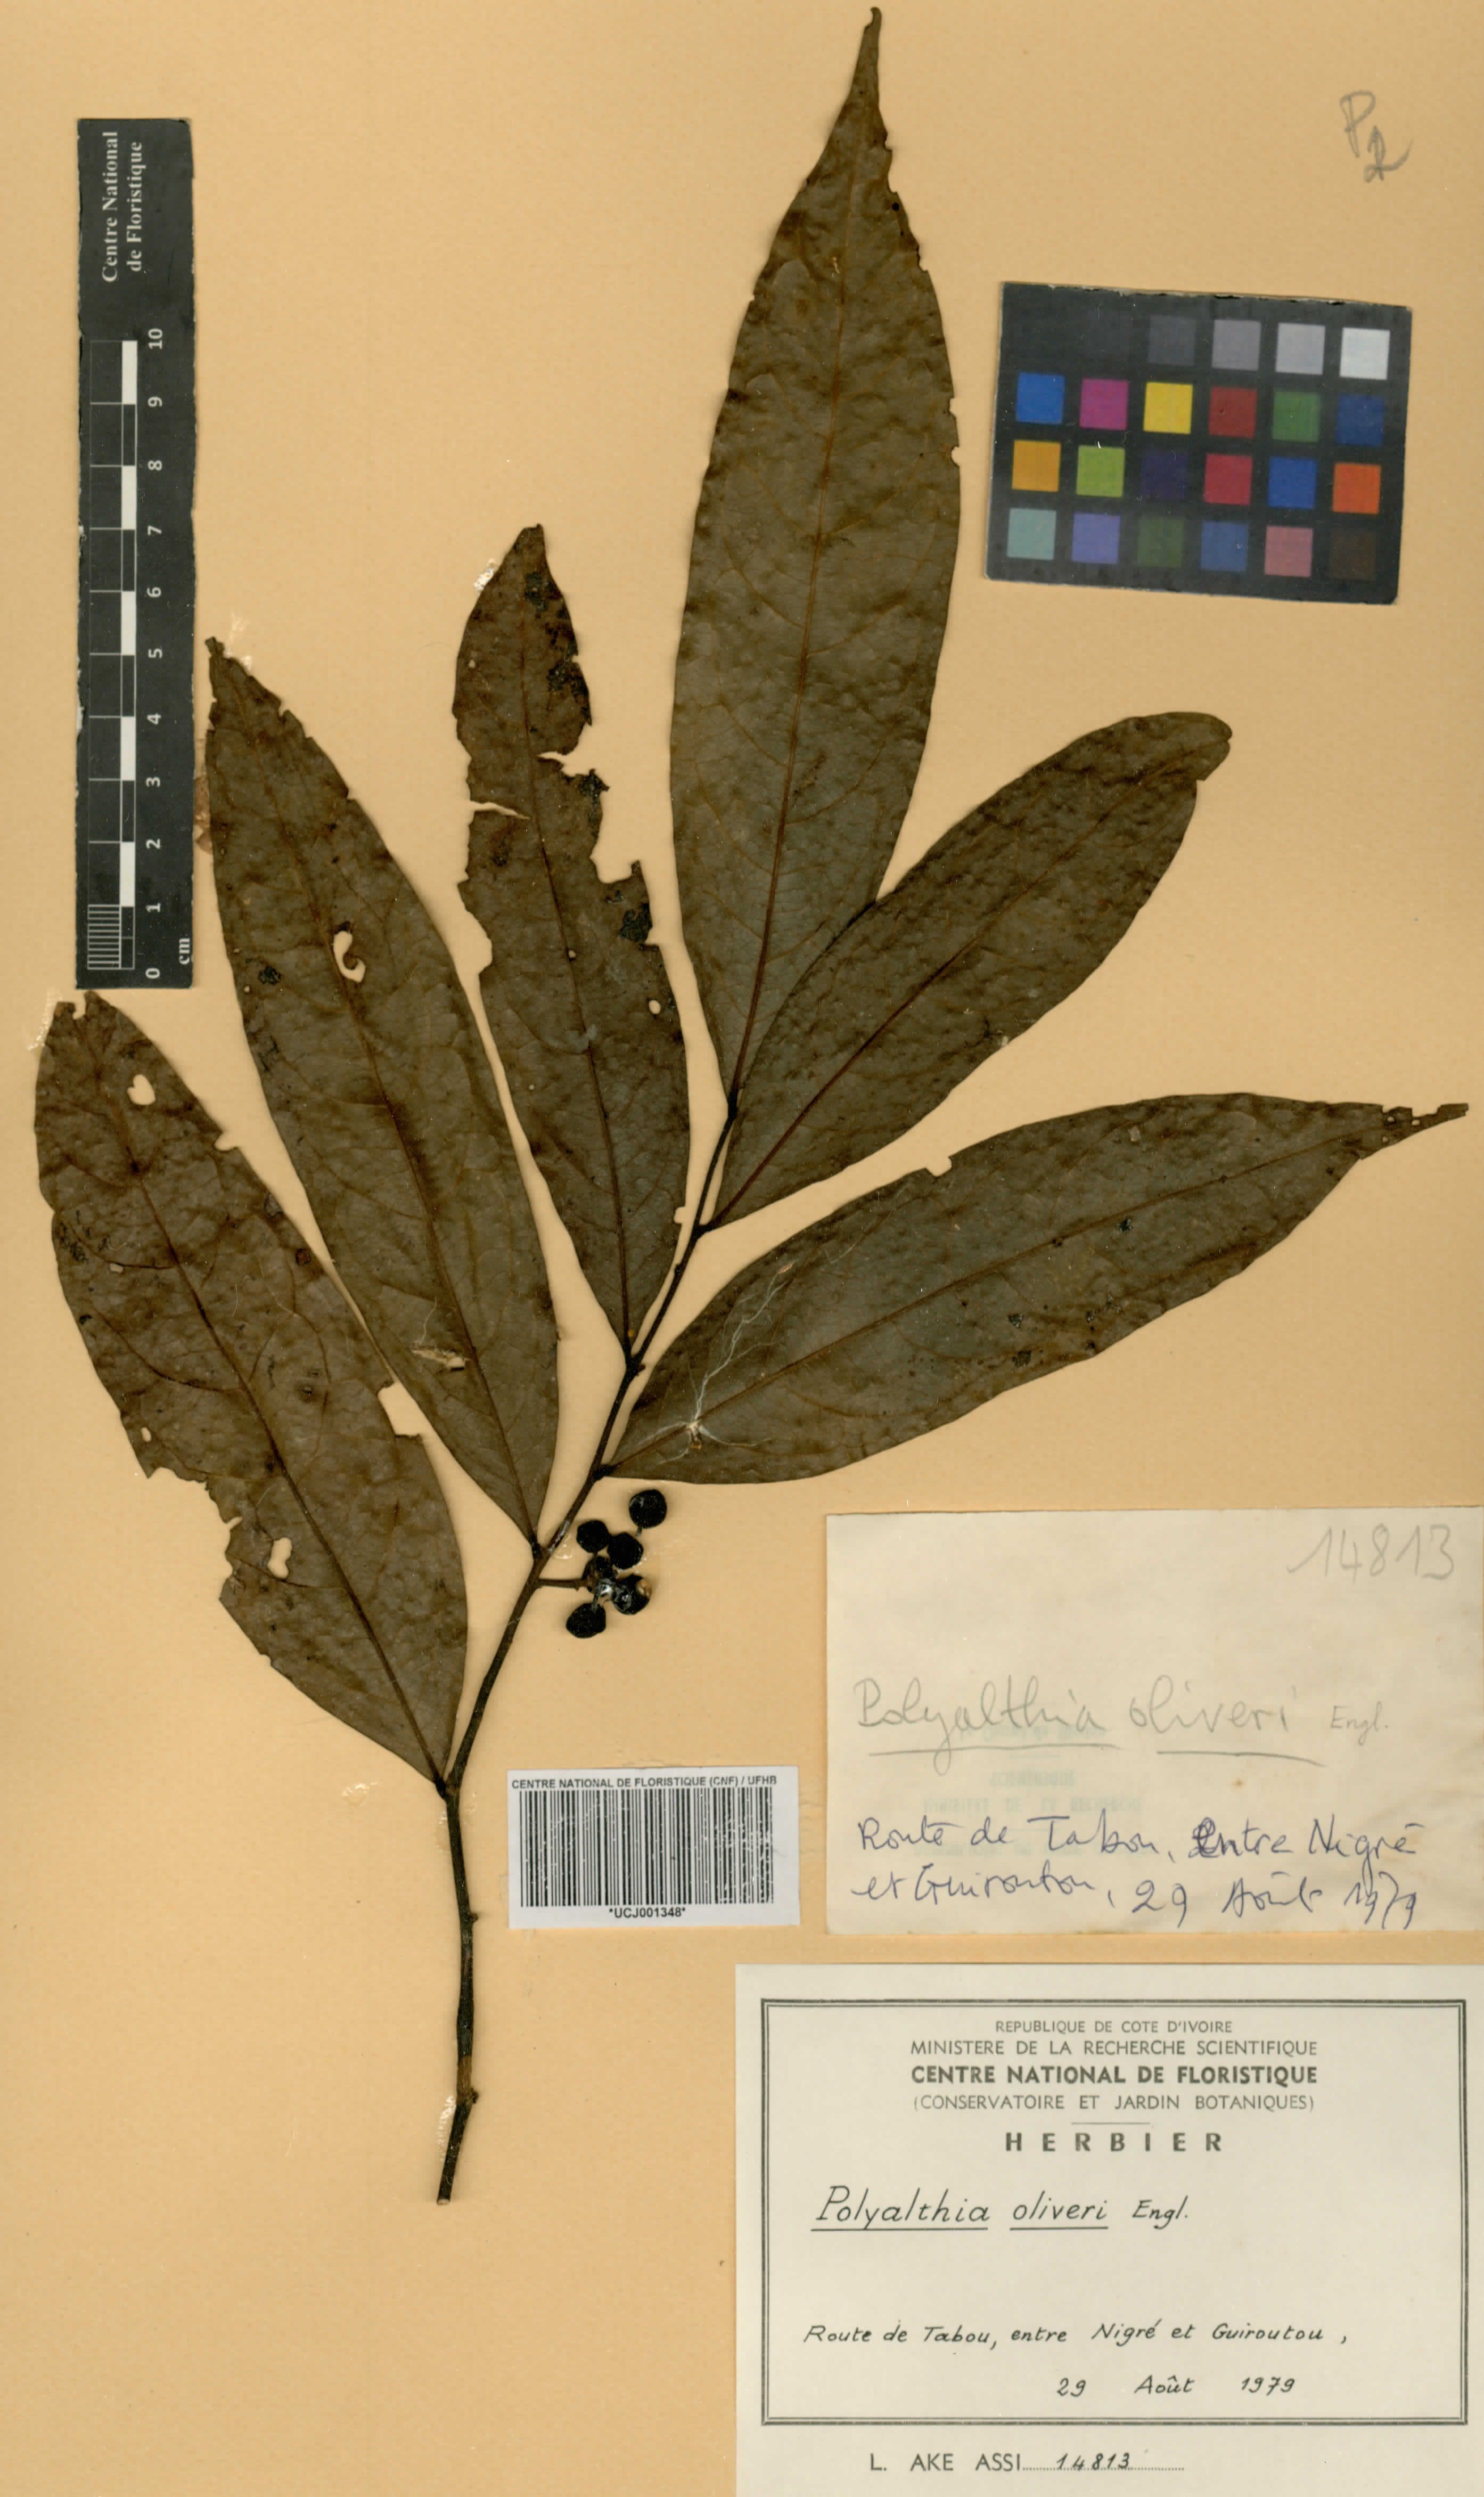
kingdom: Plantae
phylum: Tracheophyta
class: Magnoliopsida
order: Magnoliales
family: Annonaceae
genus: Greenwayodendron
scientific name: Greenwayodendron oliveri
